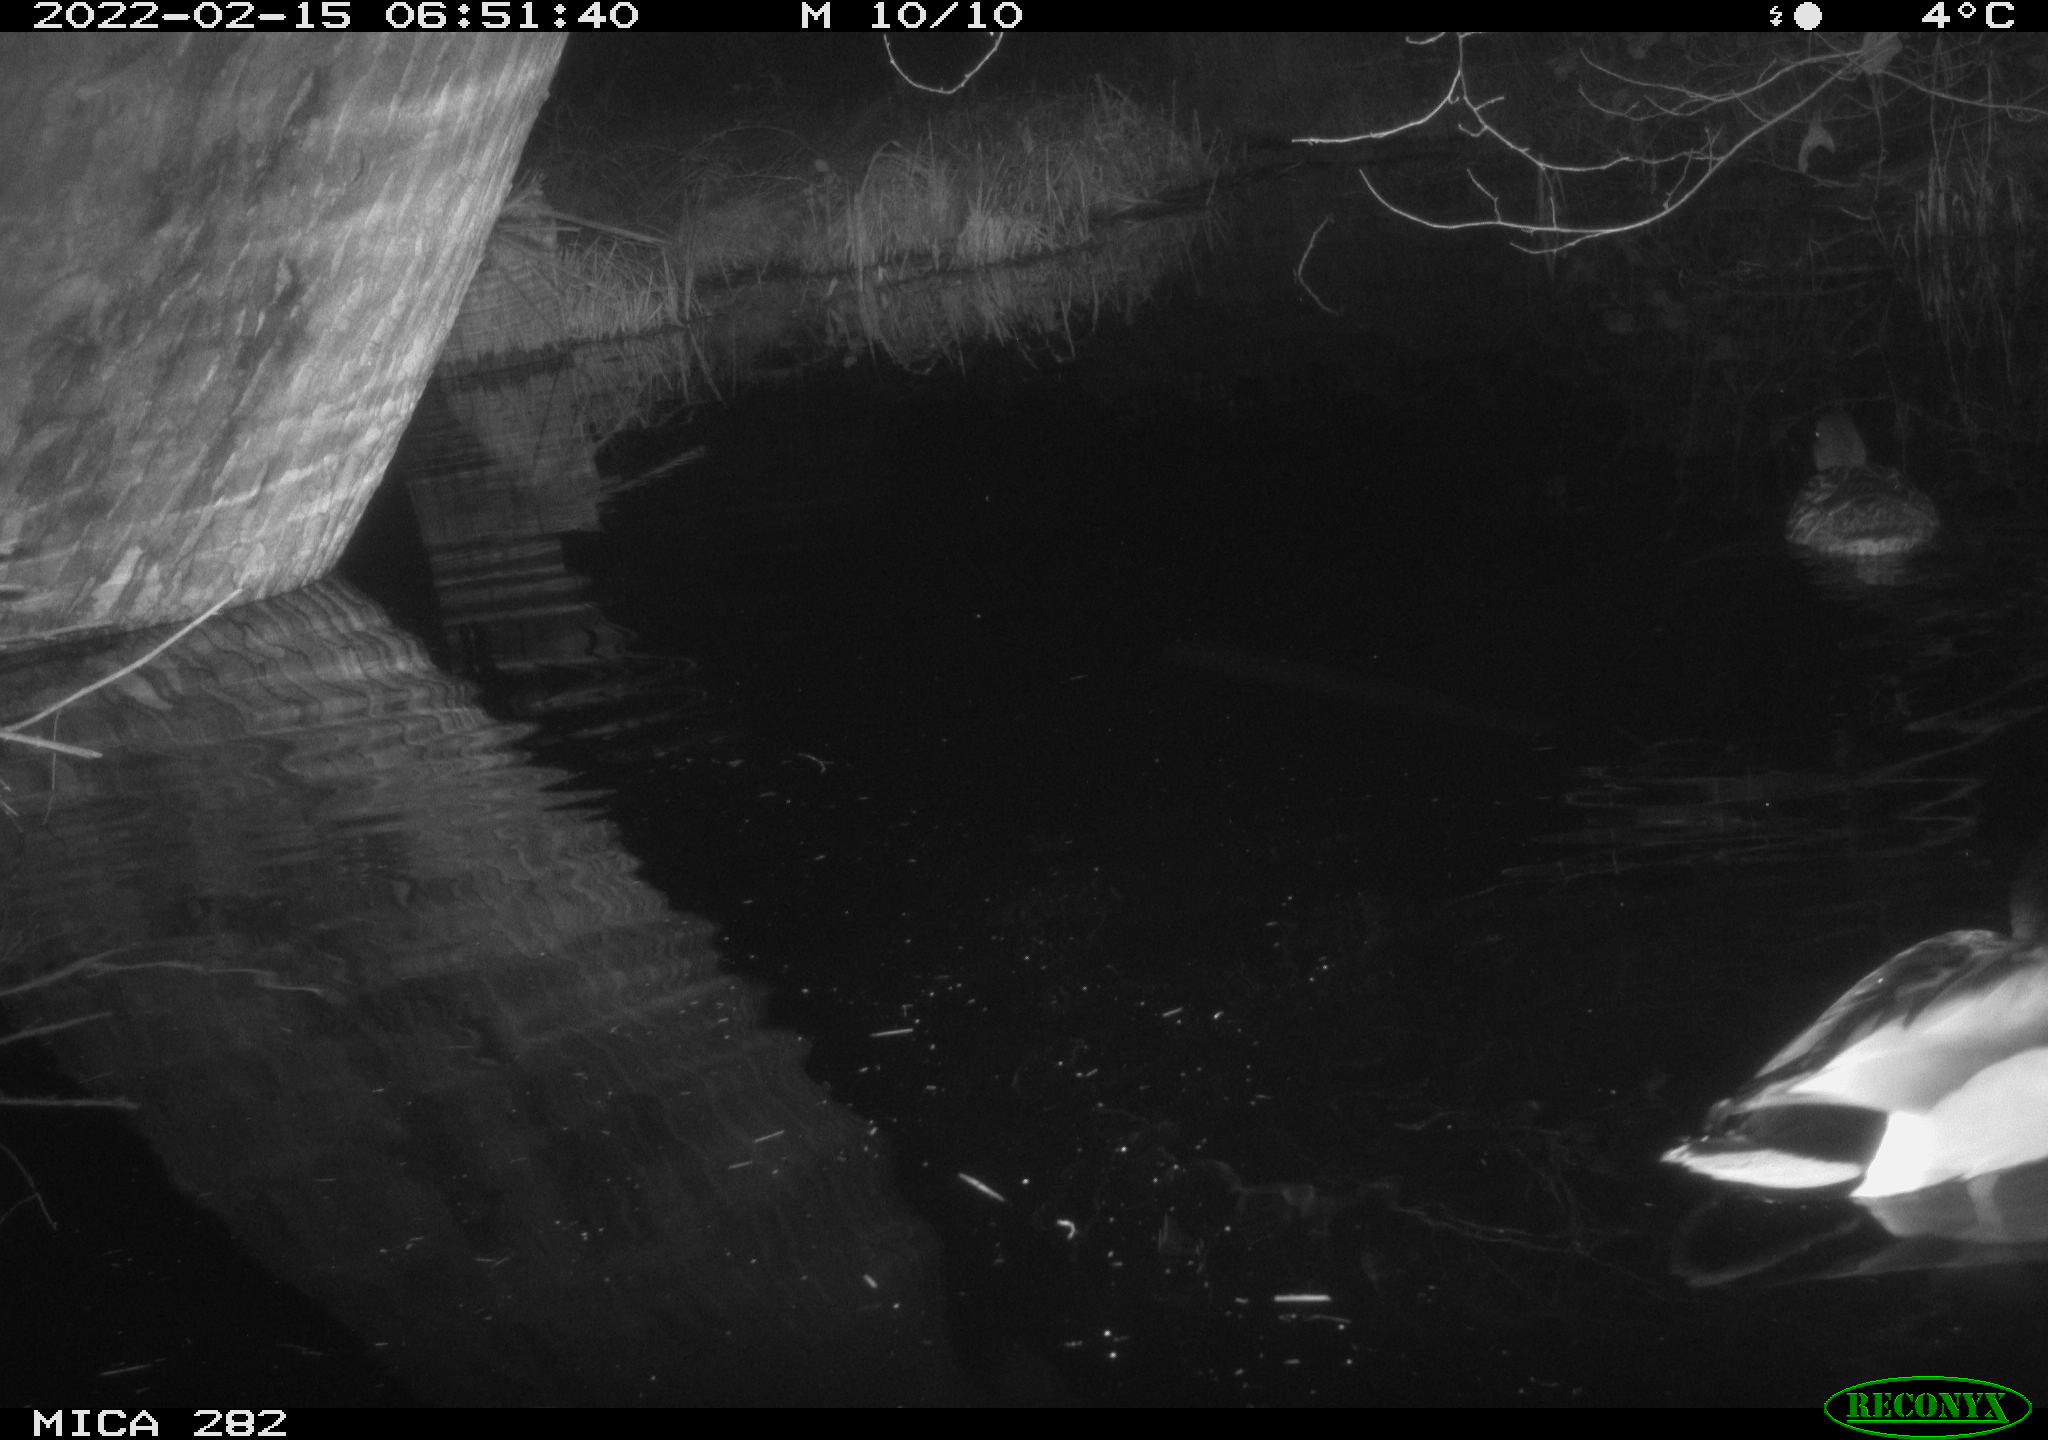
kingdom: Animalia
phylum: Chordata
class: Aves
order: Anseriformes
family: Anatidae
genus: Anas
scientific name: Anas platyrhynchos
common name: Mallard
